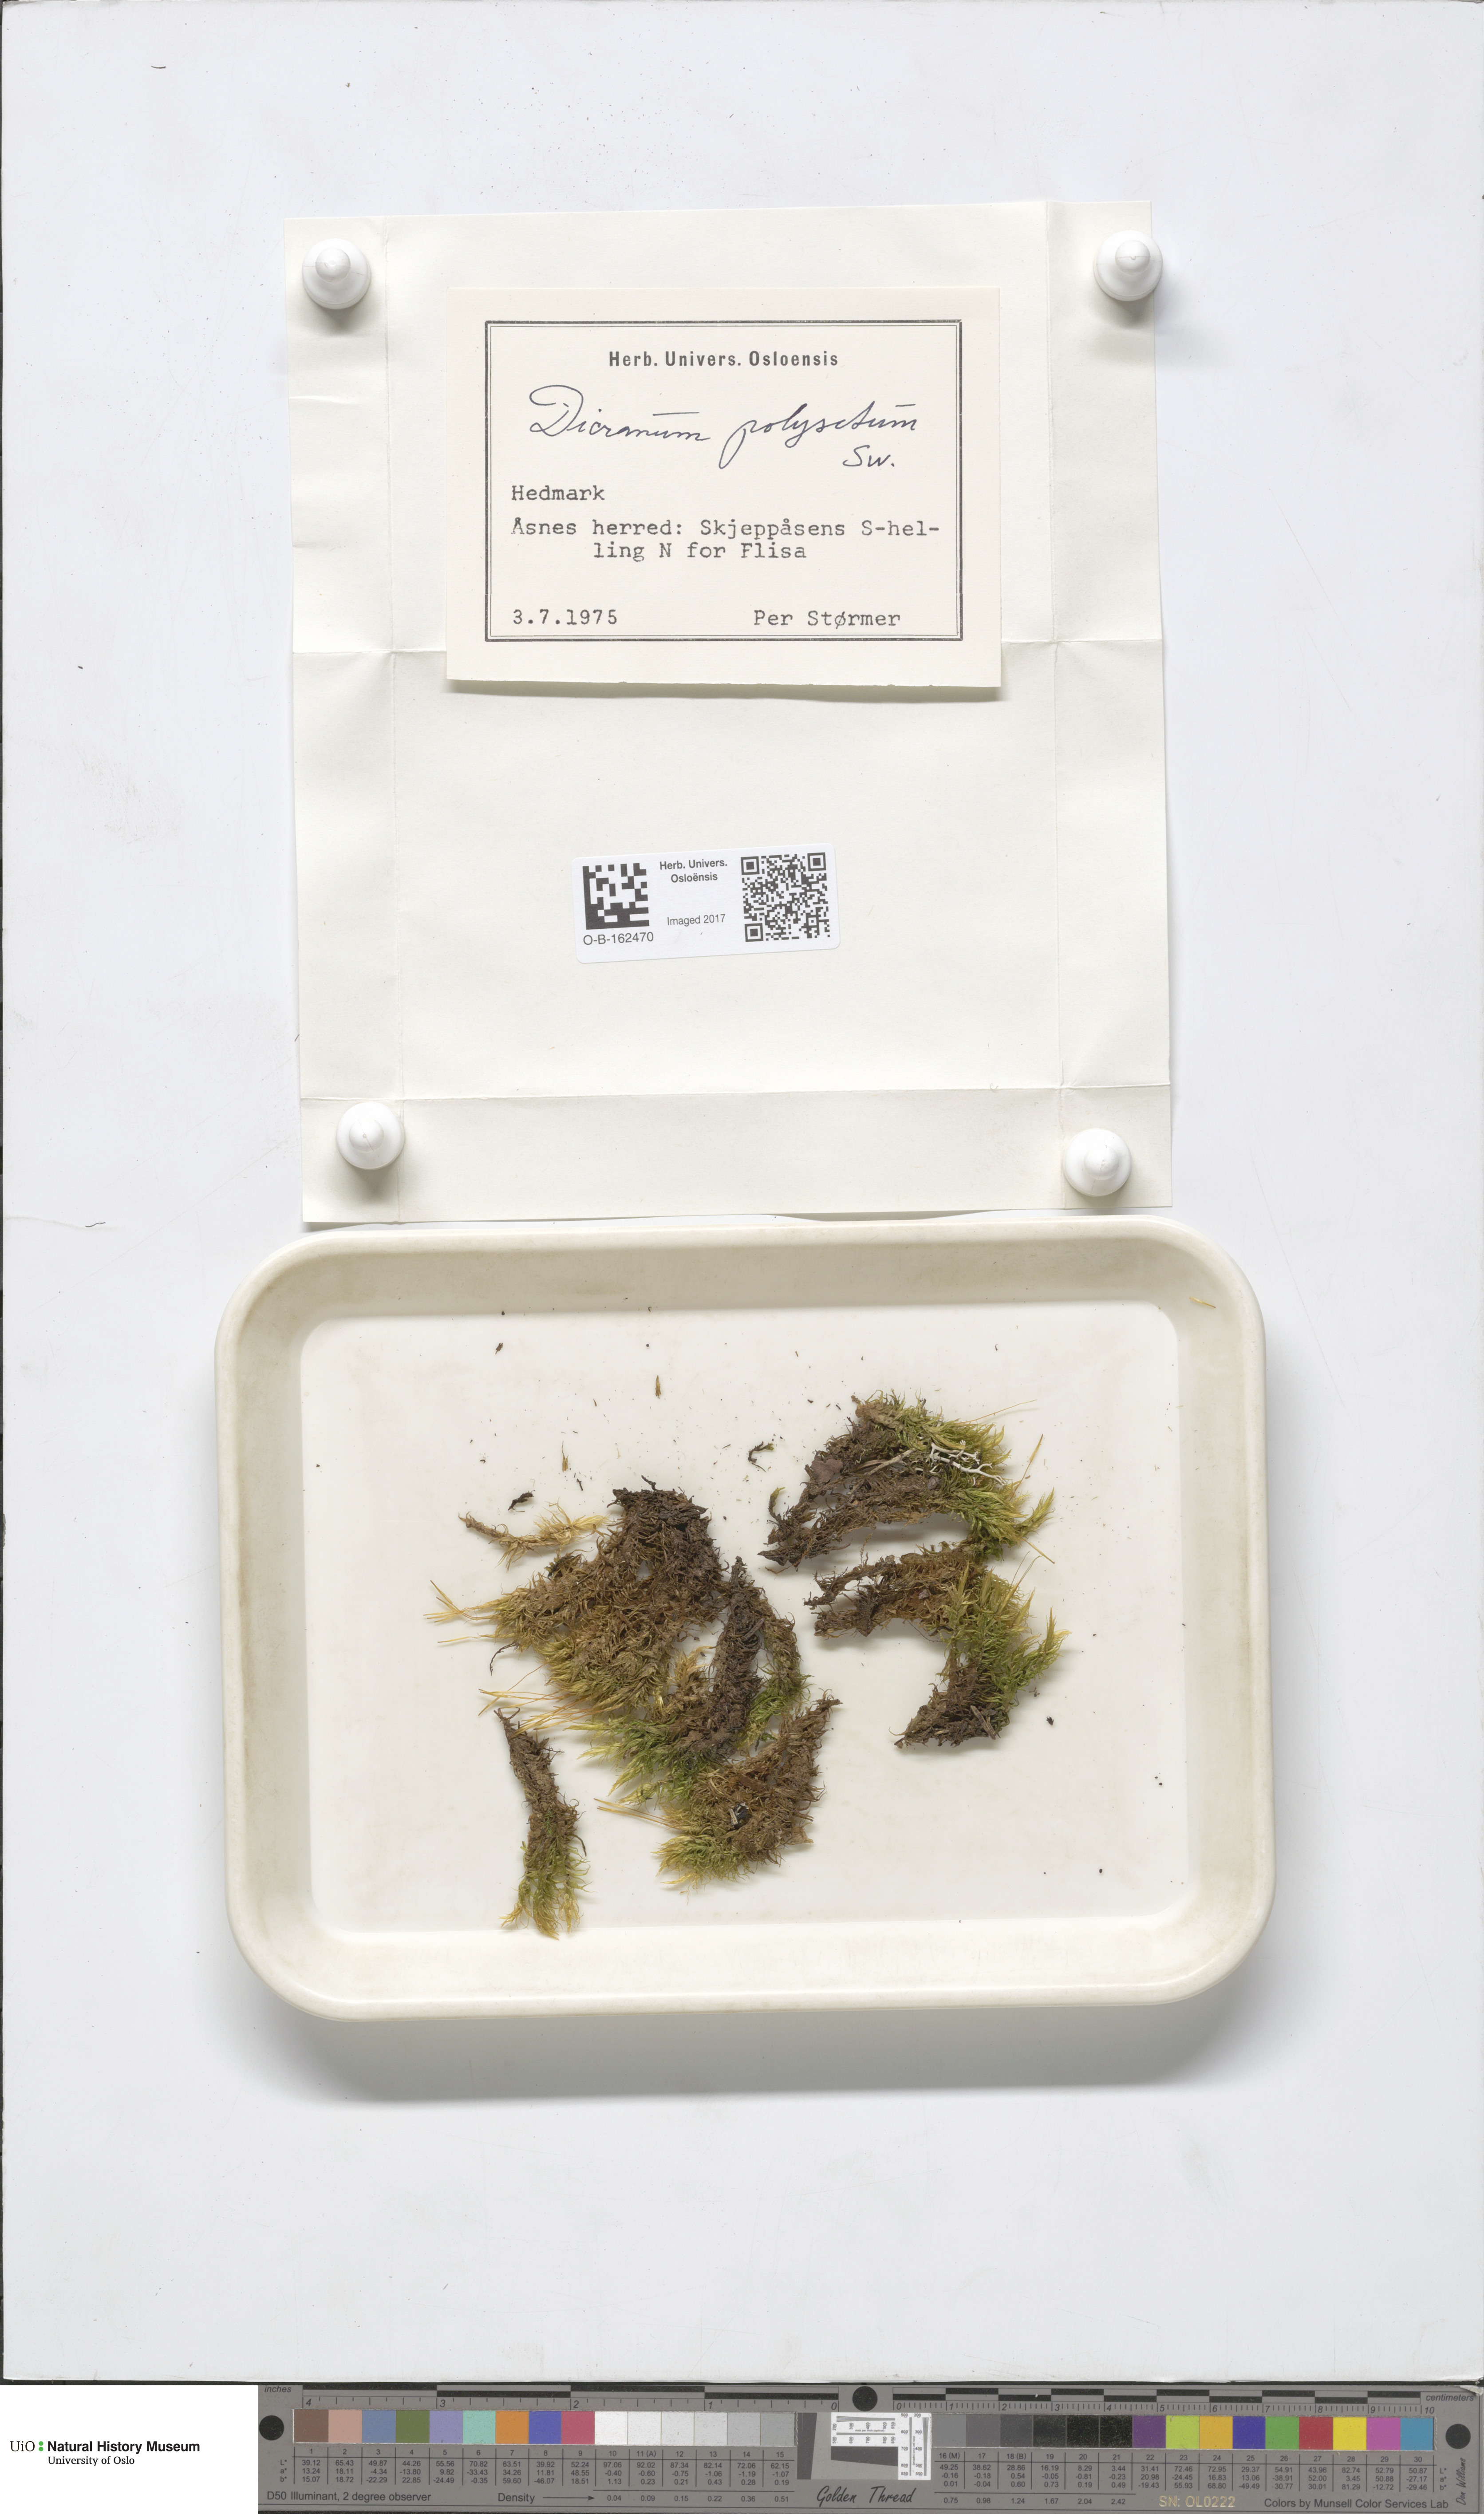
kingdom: Plantae
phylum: Bryophyta
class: Bryopsida
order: Dicranales
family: Dicranaceae
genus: Dicranum
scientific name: Dicranum polysetum
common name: Rugose fork-moss
